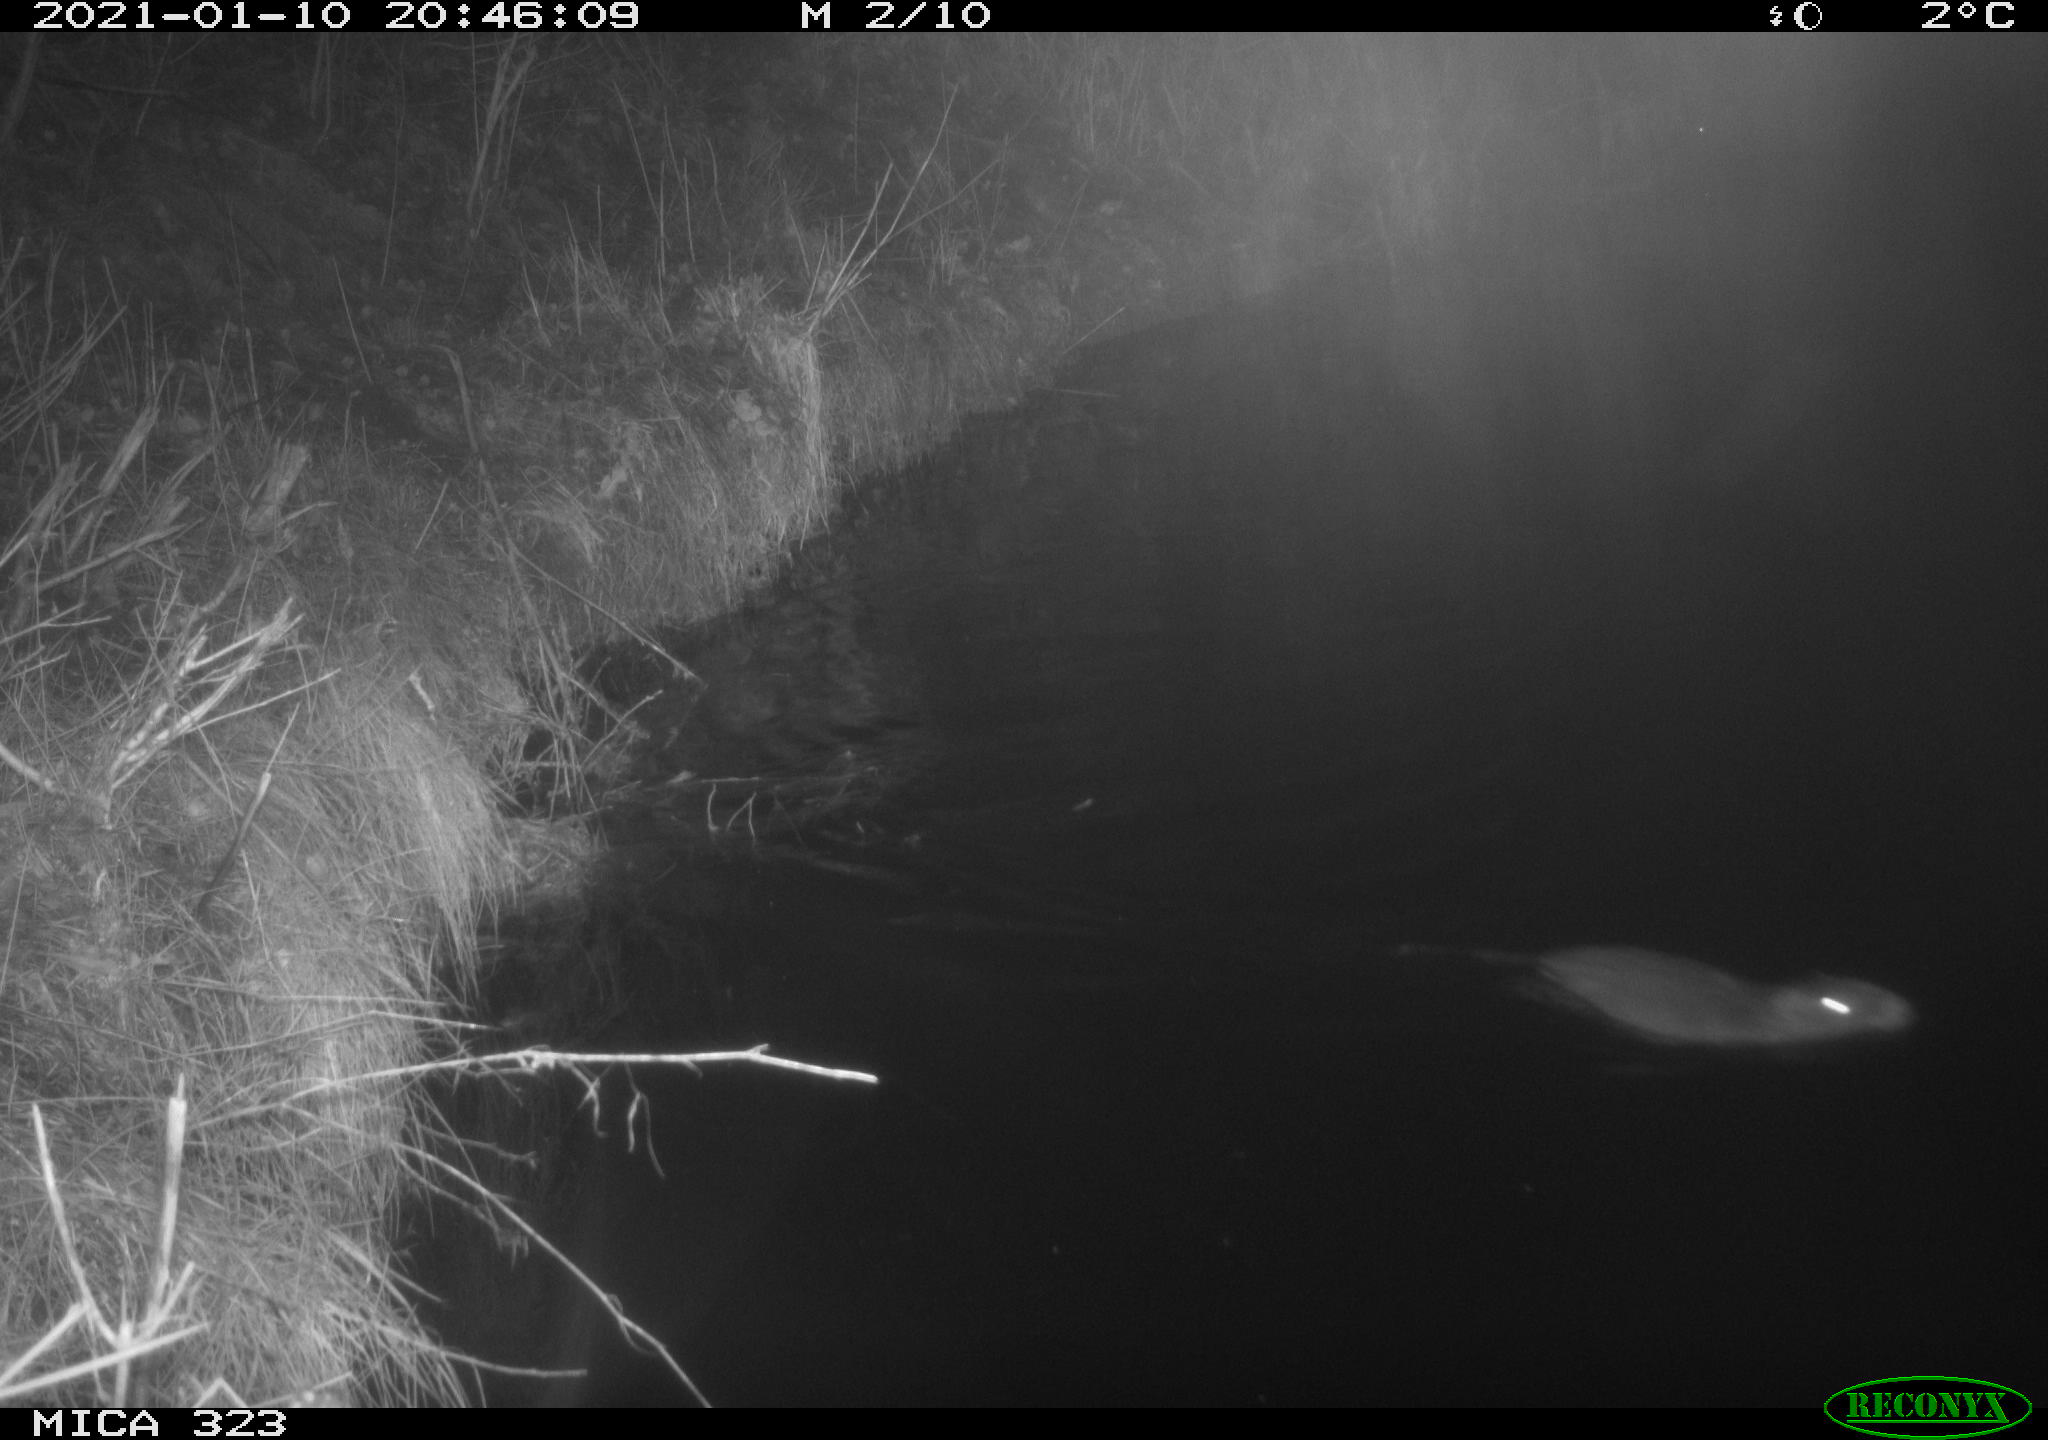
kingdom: Animalia
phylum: Chordata
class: Mammalia
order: Rodentia
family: Myocastoridae
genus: Myocastor
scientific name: Myocastor coypus
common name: Coypu
